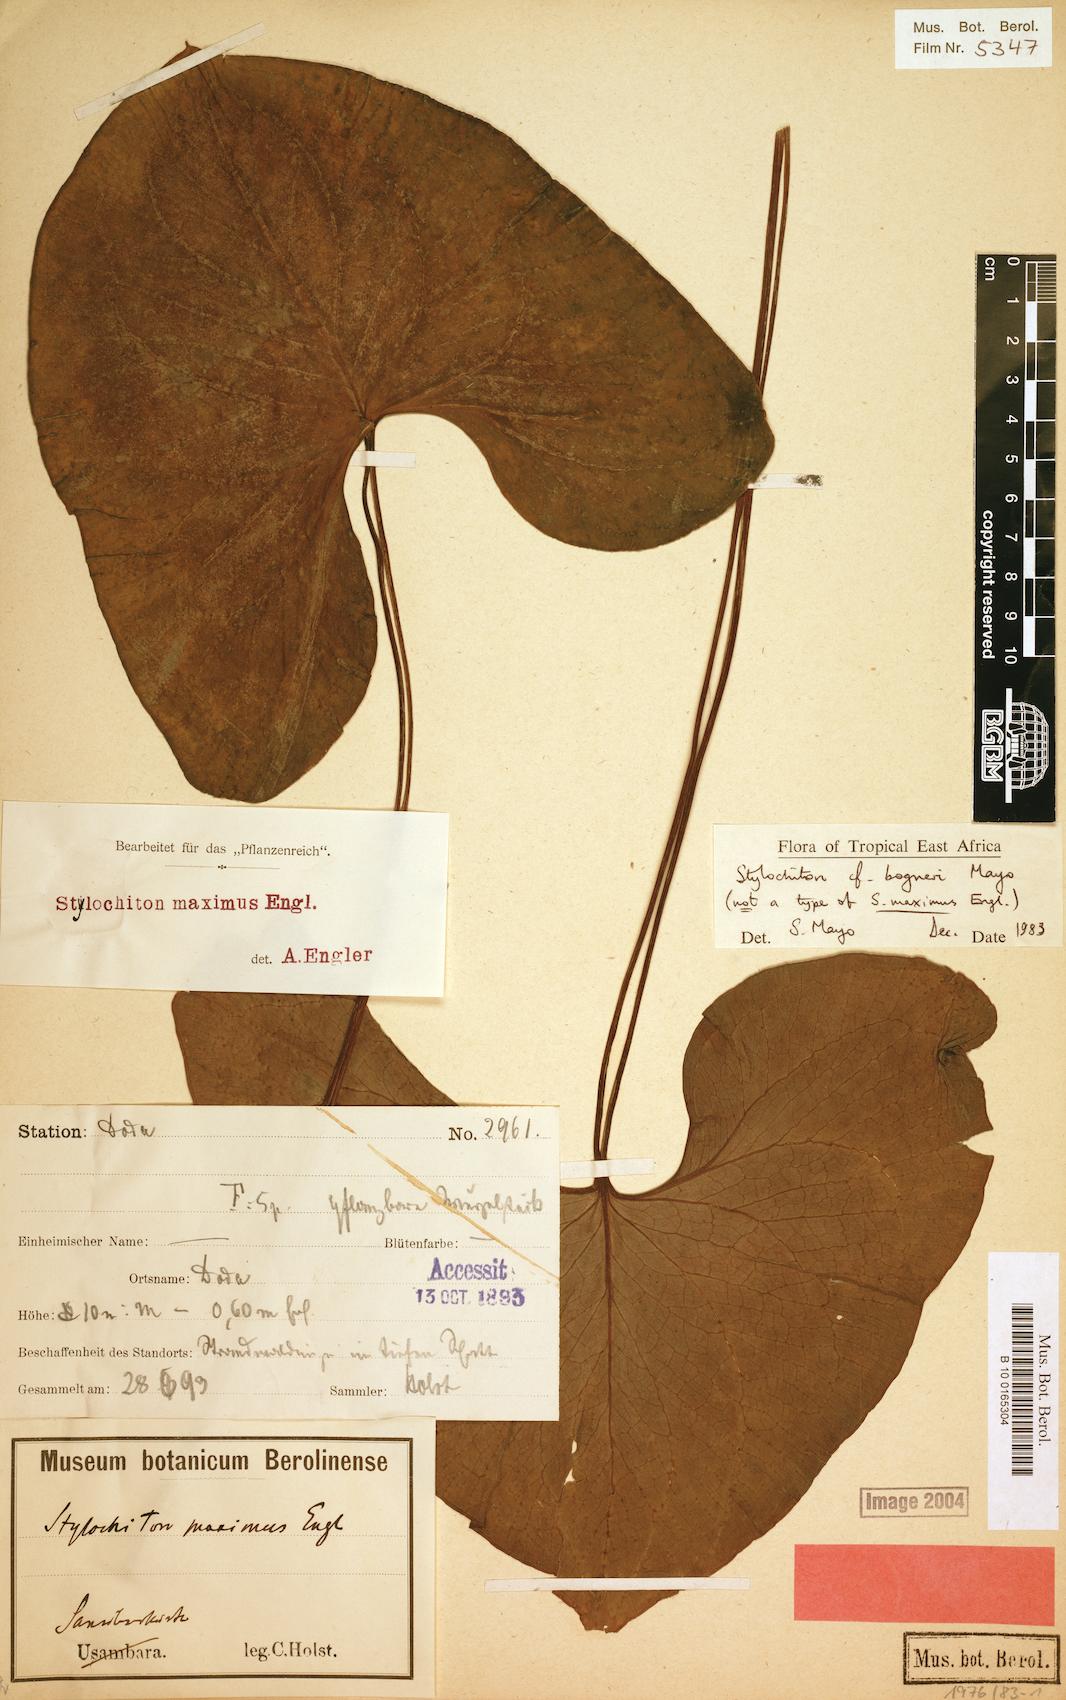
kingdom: Plantae
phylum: Tracheophyta
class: Liliopsida
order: Alismatales
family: Araceae
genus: Stylochiton
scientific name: Stylochiton maximus
